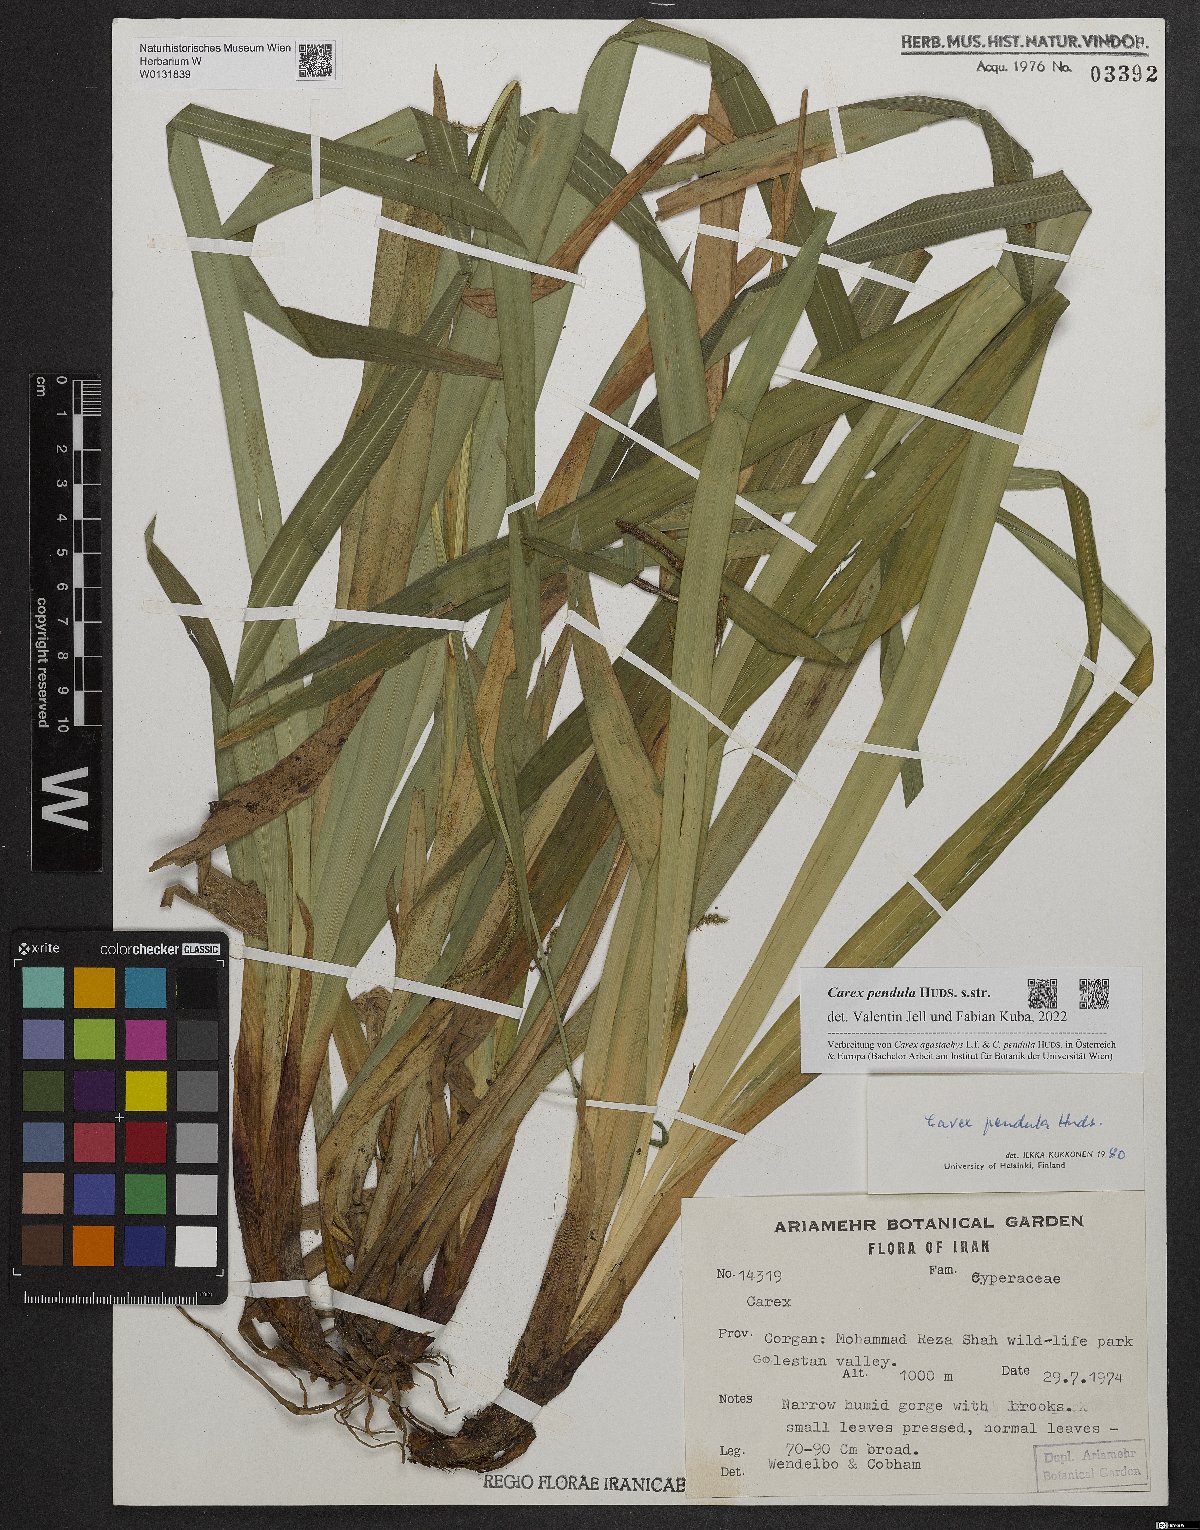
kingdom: Plantae
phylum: Tracheophyta
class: Liliopsida
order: Poales
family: Cyperaceae
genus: Carex
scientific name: Carex pendula
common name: Pendulous sedge
